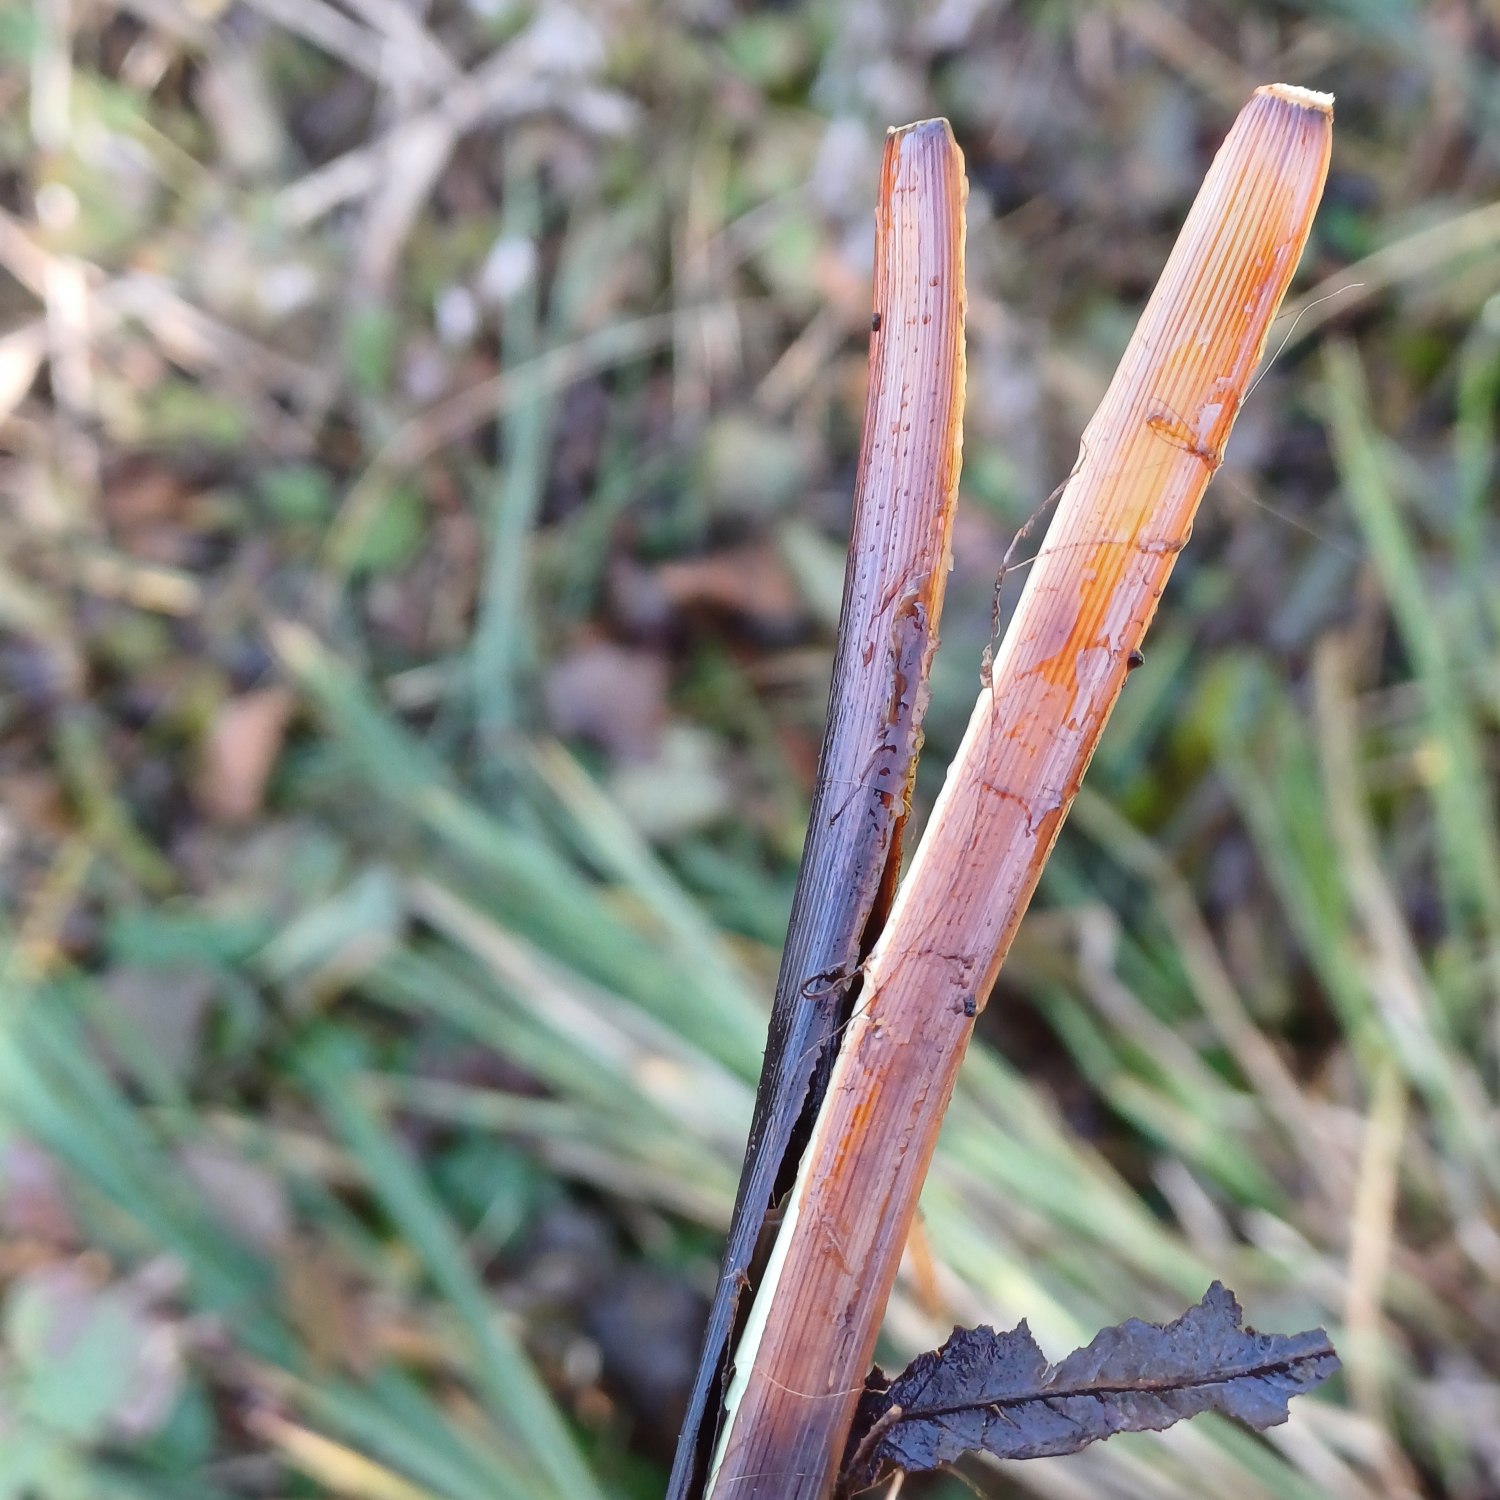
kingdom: Plantae
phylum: Tracheophyta
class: Liliopsida
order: Poales
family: Cyperaceae
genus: Carex
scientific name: Carex paniculata
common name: Top-star
